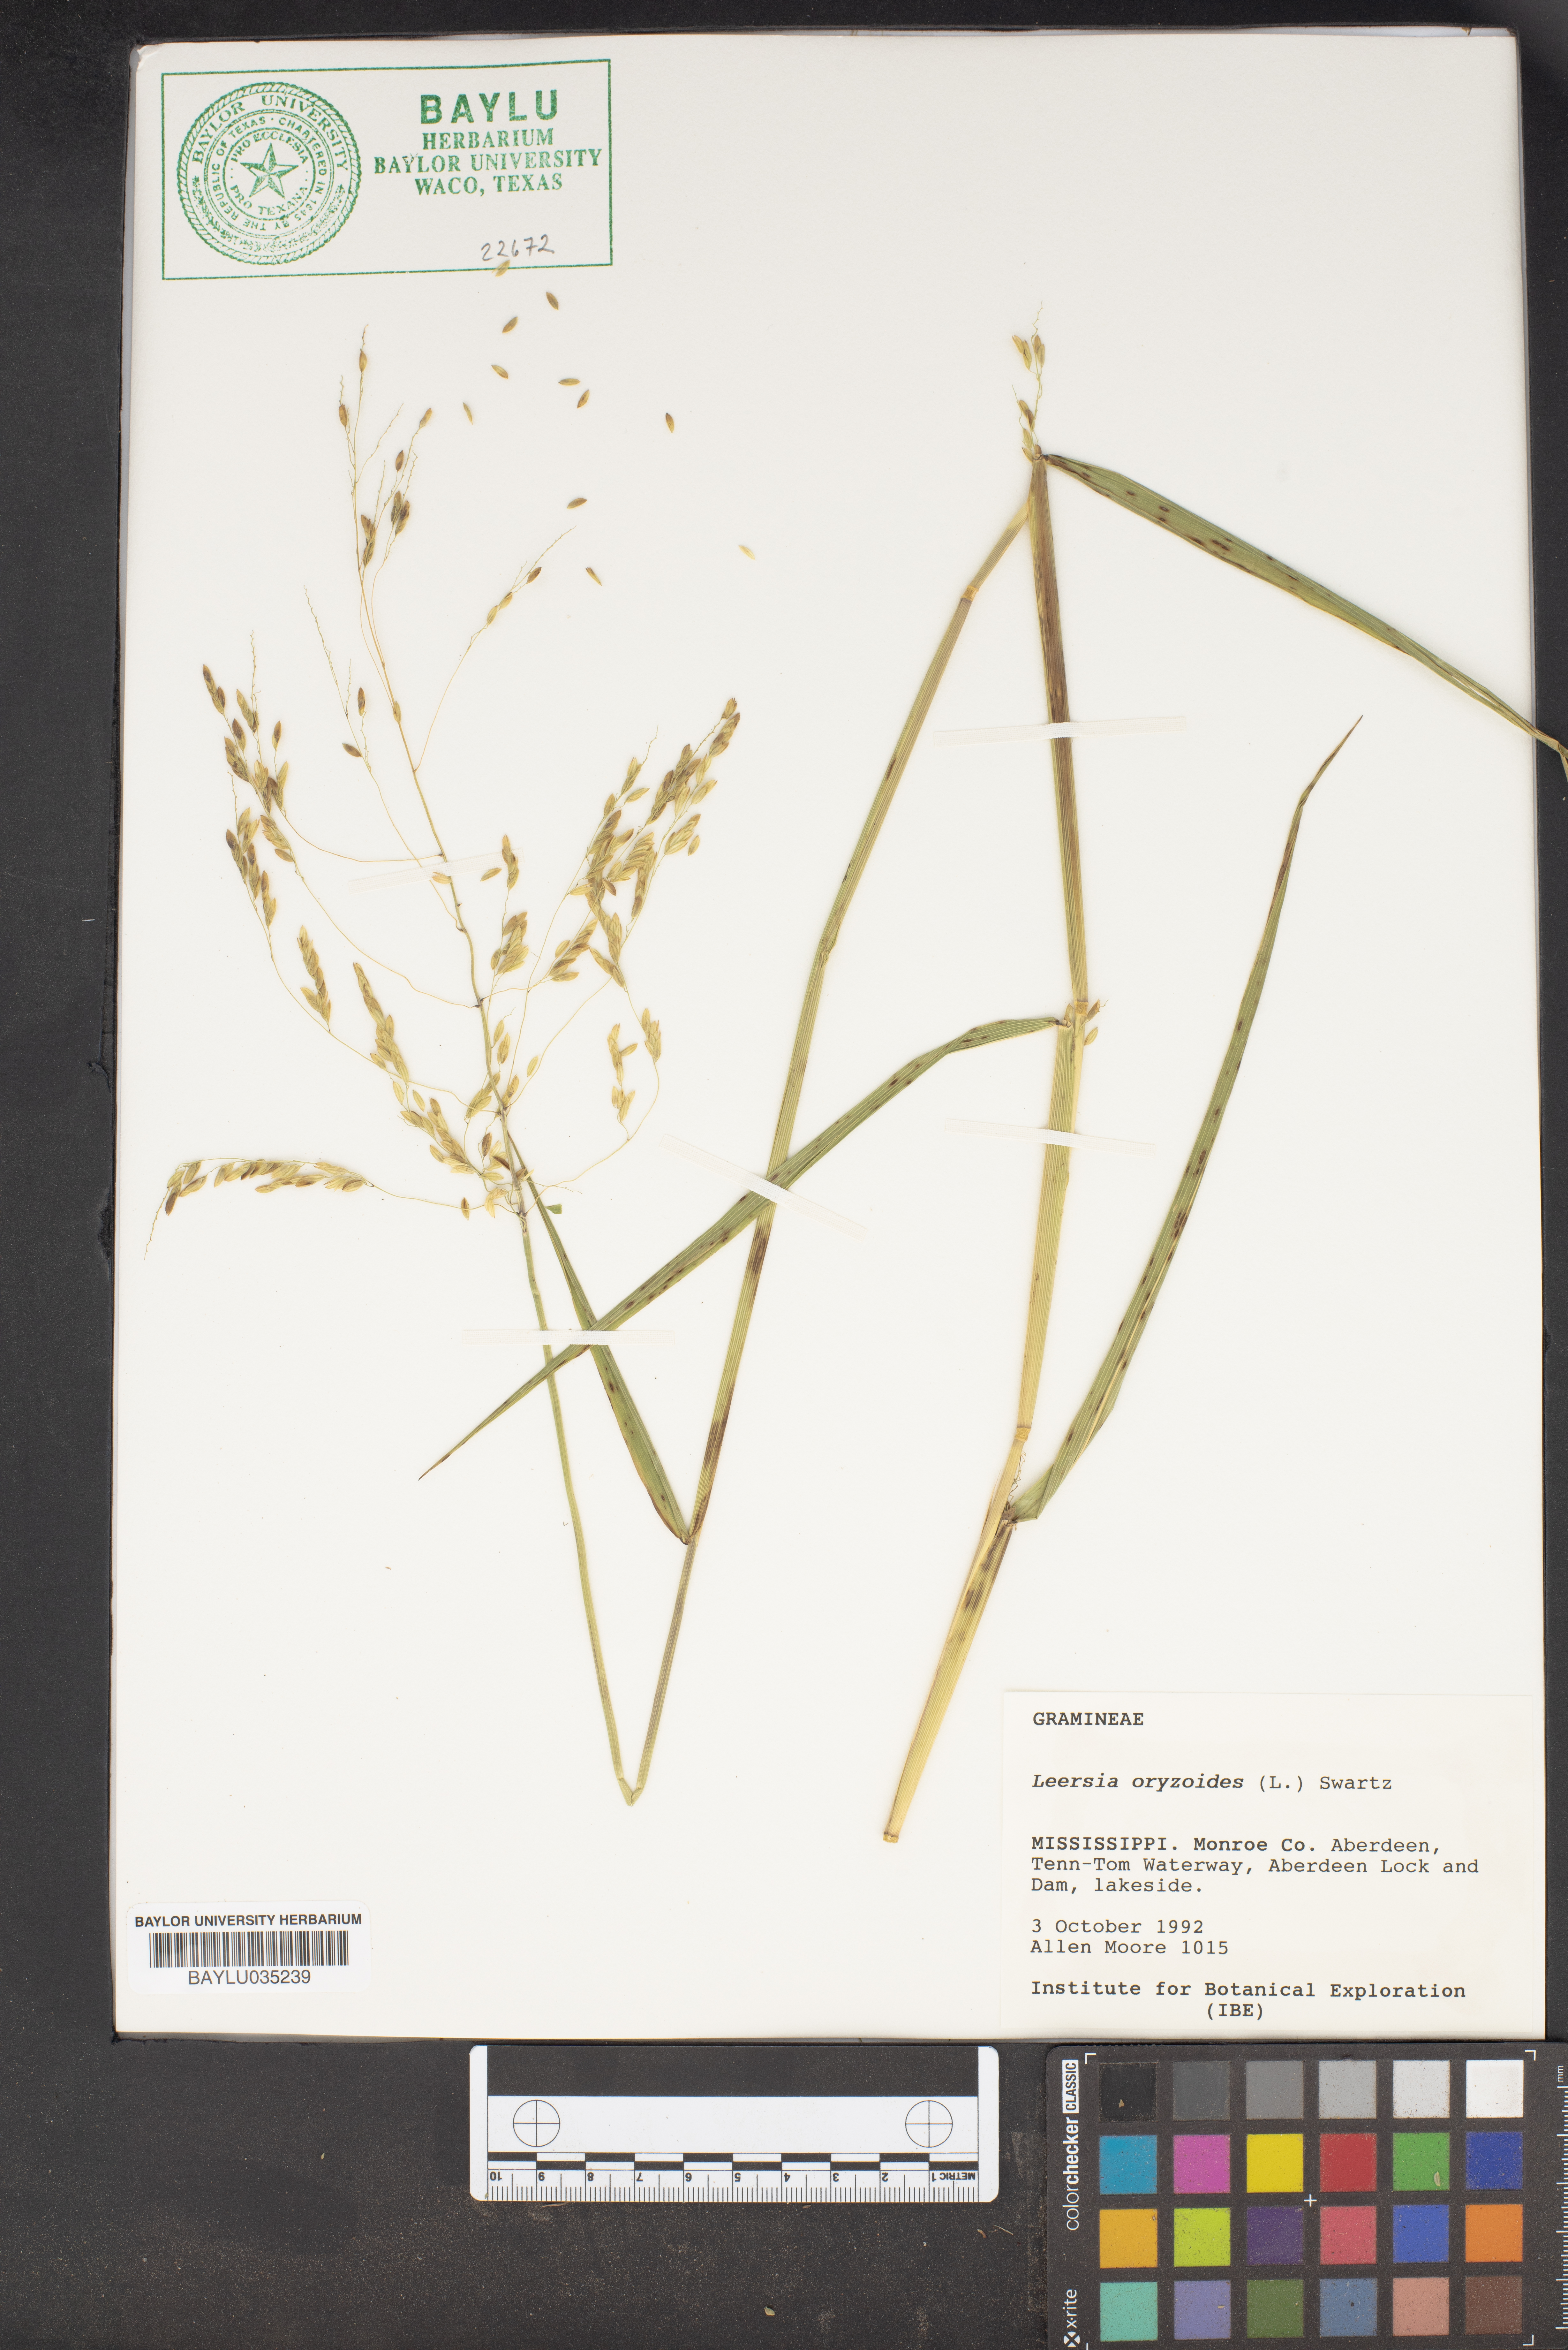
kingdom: Plantae
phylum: Tracheophyta
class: Liliopsida
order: Poales
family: Poaceae
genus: Leersia
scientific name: Leersia oryzoides
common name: Cut-grass
